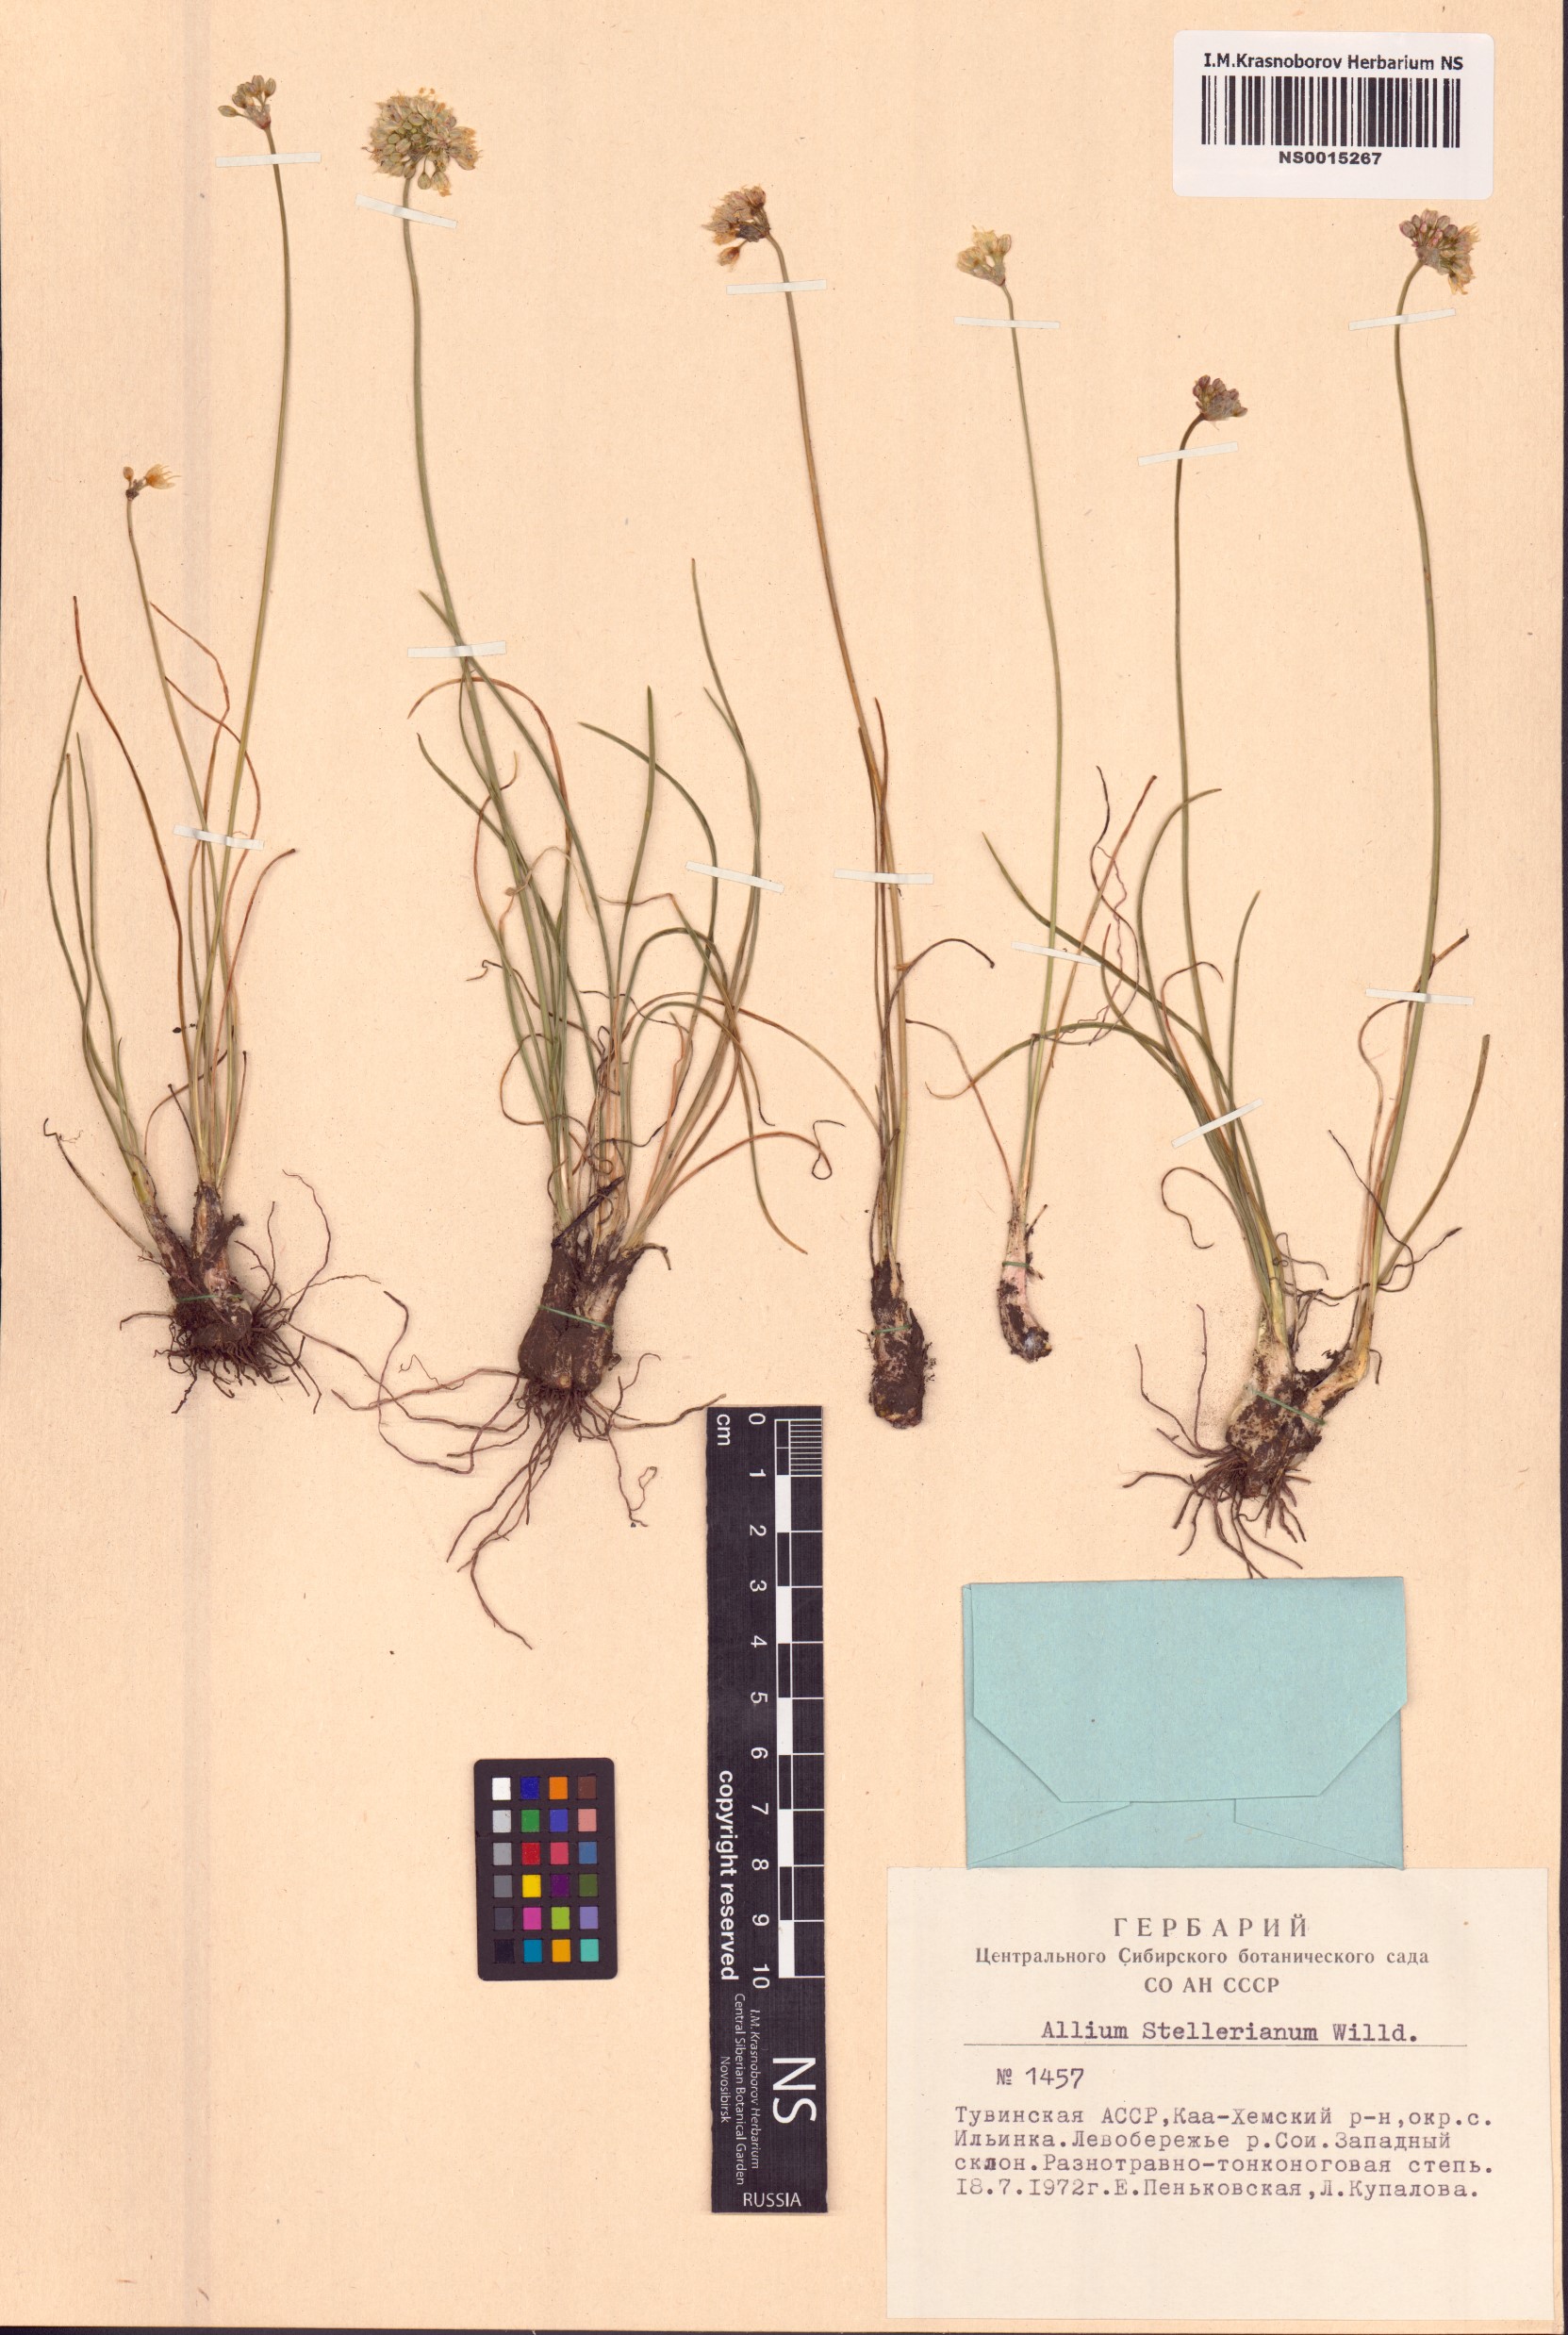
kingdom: Plantae
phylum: Tracheophyta
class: Liliopsida
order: Asparagales
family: Amaryllidaceae
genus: Allium
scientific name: Allium stellerianum
